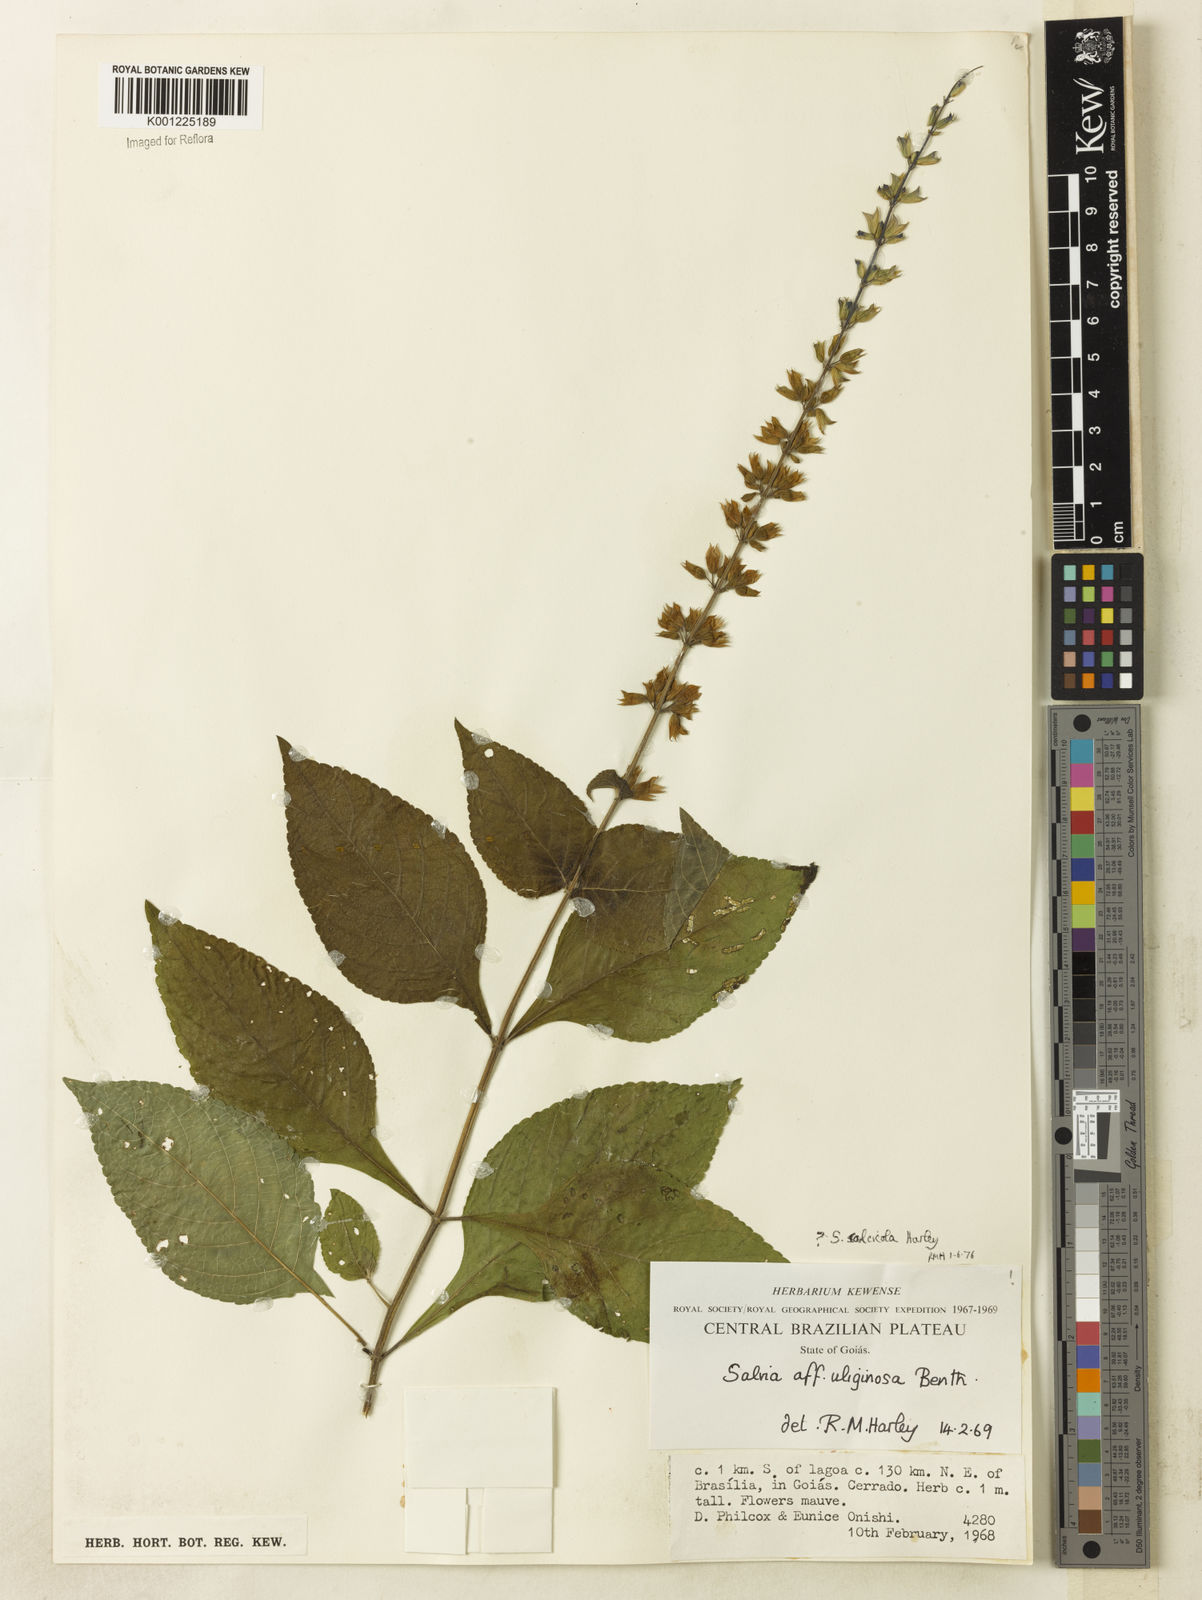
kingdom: Plantae
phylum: Tracheophyta
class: Magnoliopsida
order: Lamiales
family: Lamiaceae
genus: Salvia
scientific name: Salvia calcicola
